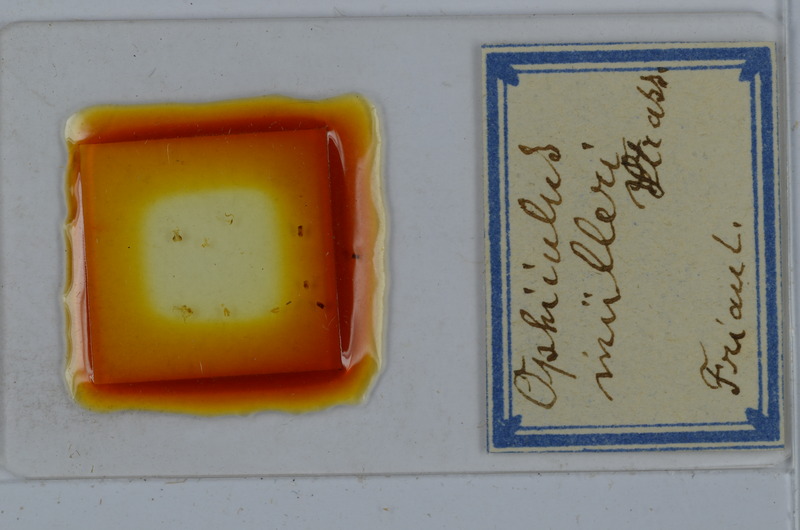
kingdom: Animalia
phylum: Arthropoda
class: Diplopoda
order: Julida
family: Julidae
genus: Ophyiulus
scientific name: Ophyiulus muelleri
